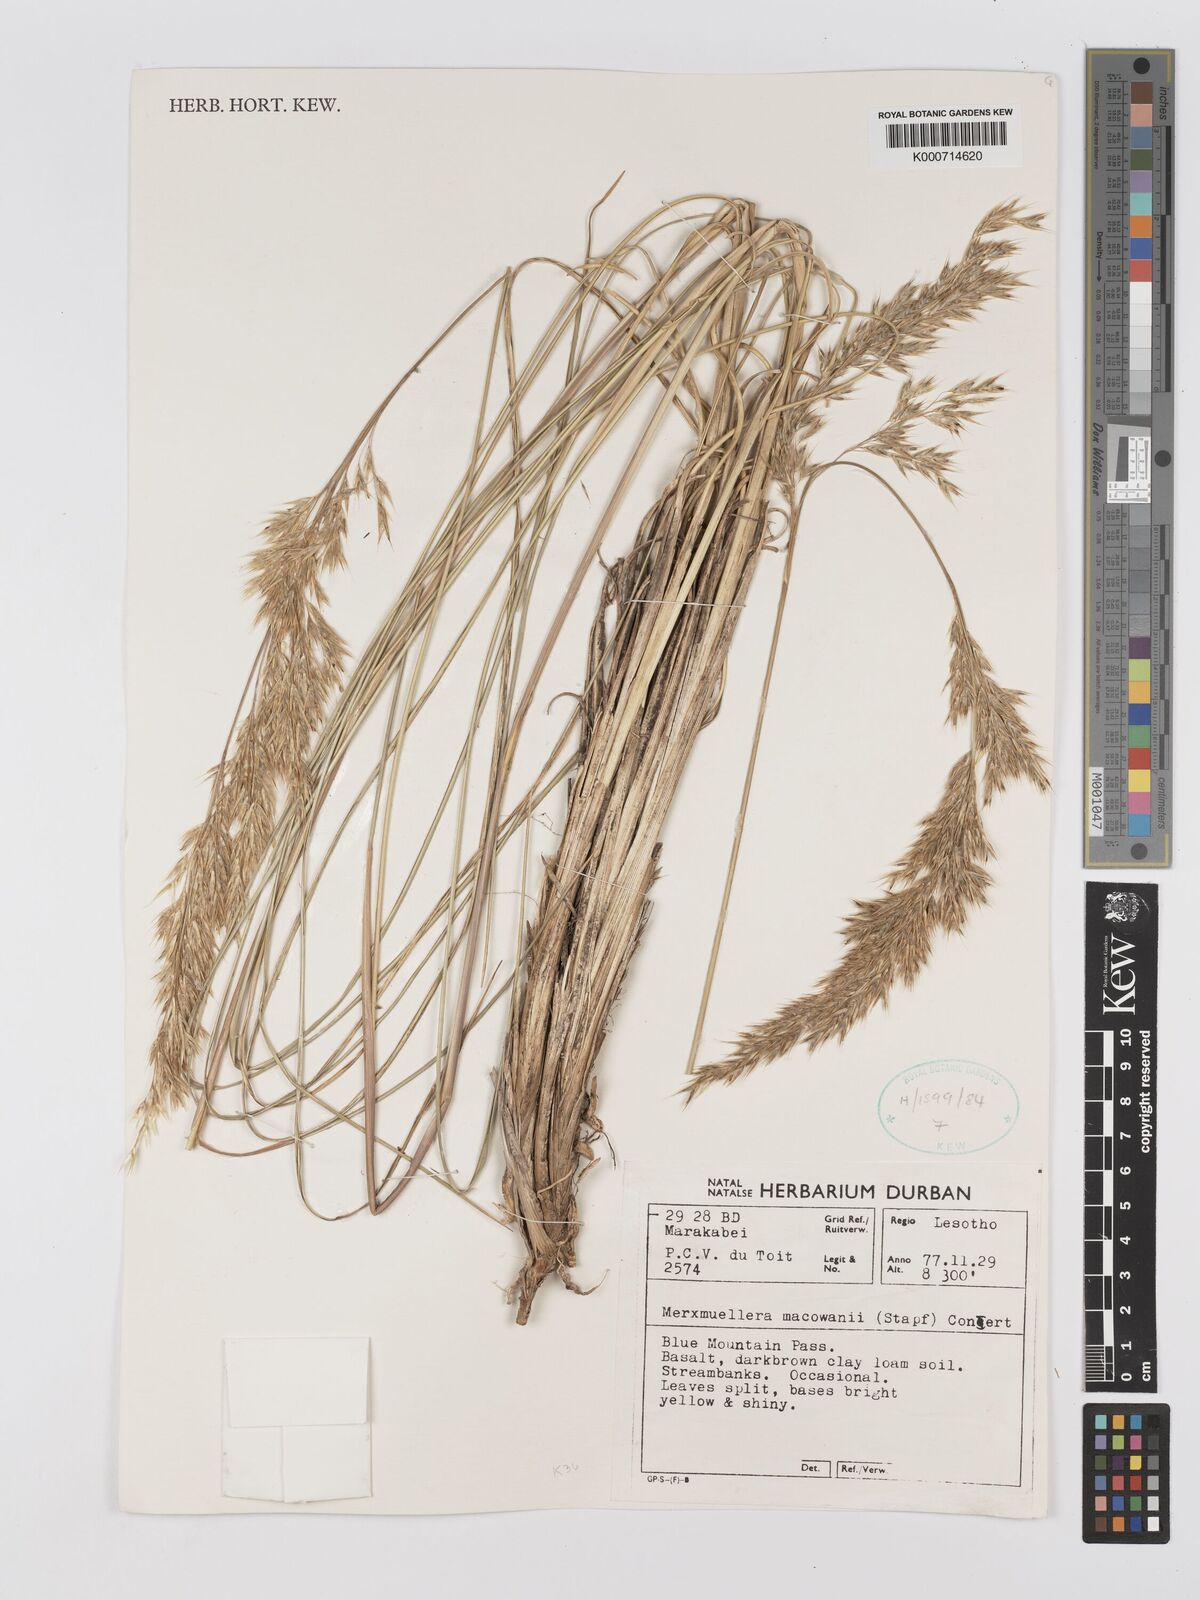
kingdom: Plantae
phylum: Tracheophyta
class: Liliopsida
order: Poales
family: Poaceae
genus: Rytidosperma
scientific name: Rytidosperma
